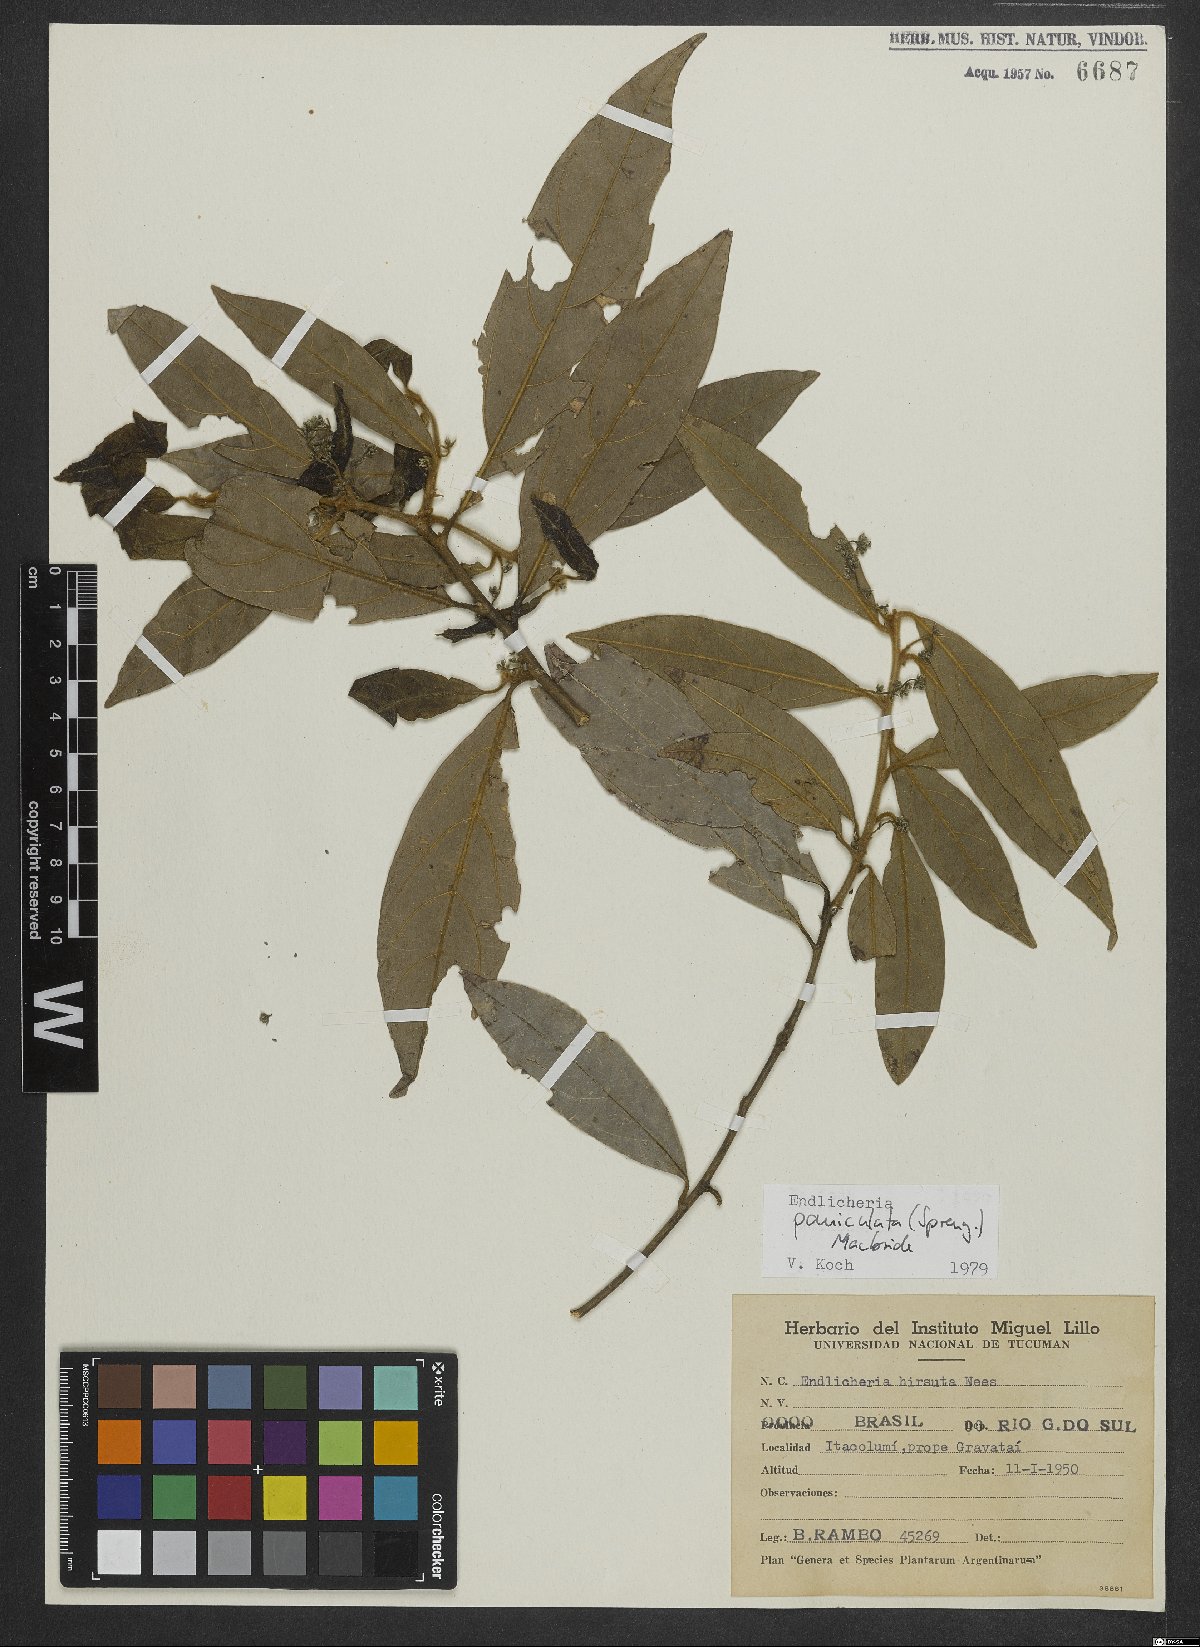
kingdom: Plantae
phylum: Tracheophyta
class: Magnoliopsida
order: Laurales
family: Lauraceae
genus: Endlicheria
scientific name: Endlicheria paniculata
